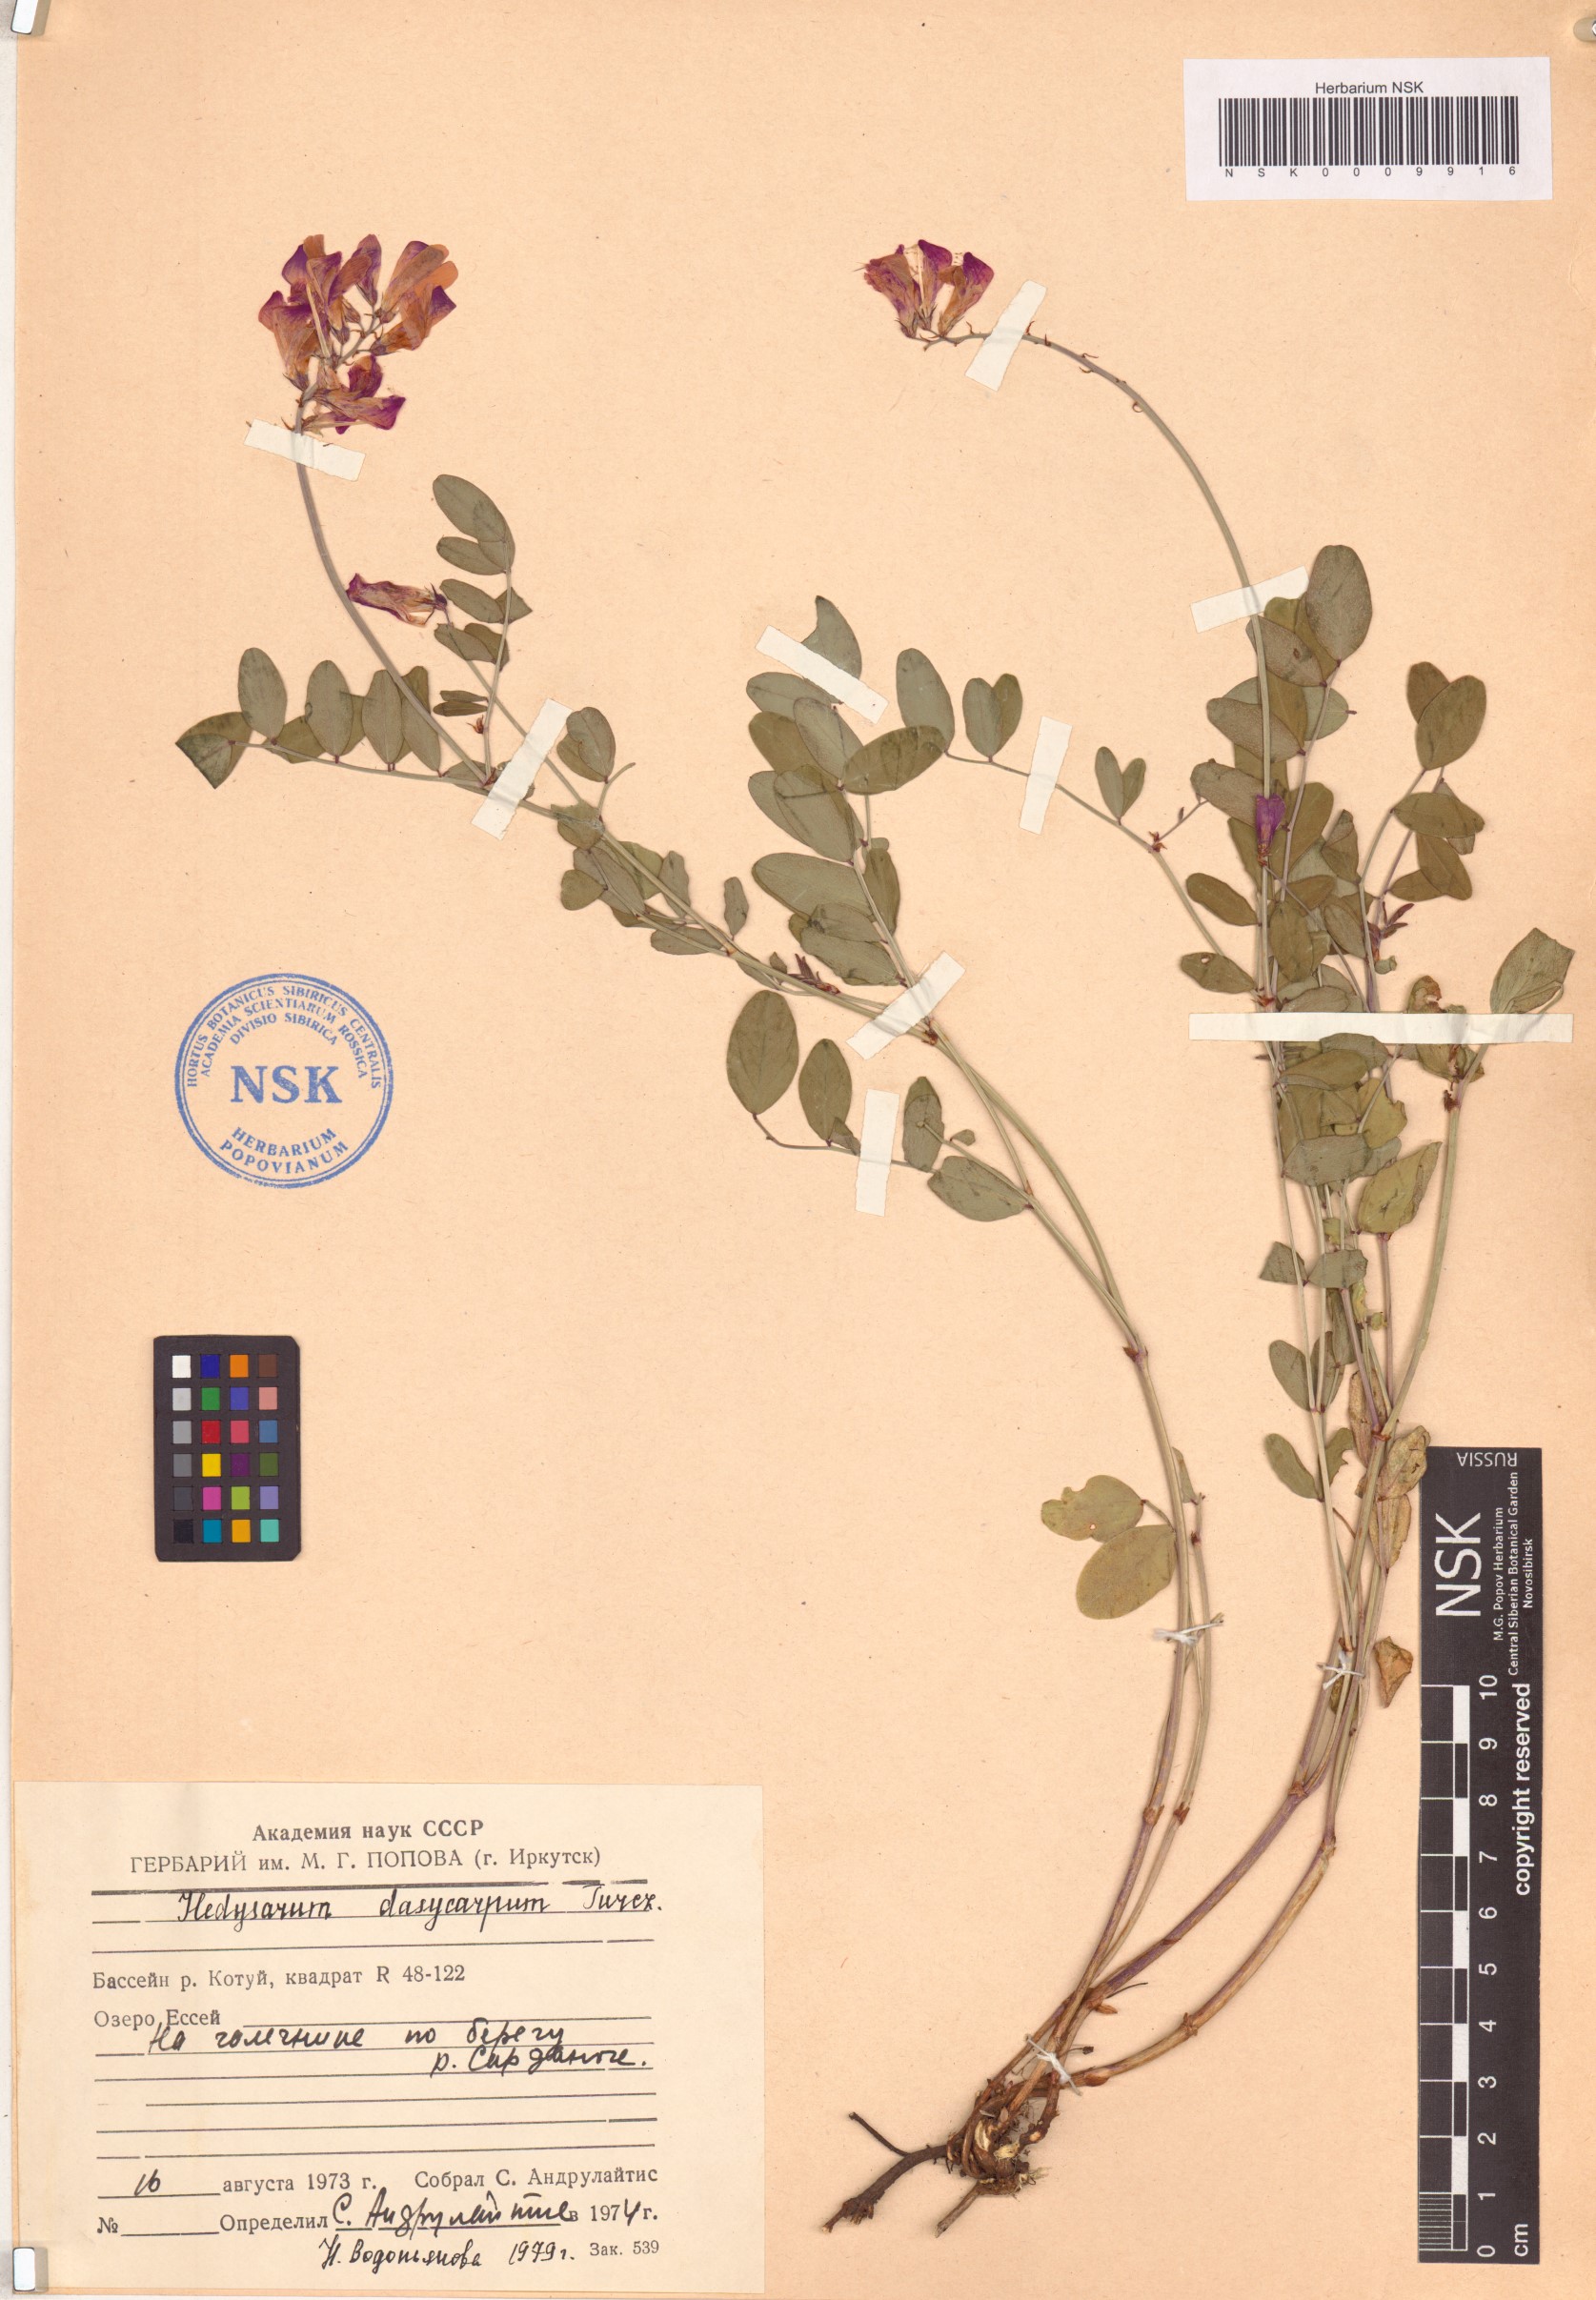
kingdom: Plantae
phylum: Tracheophyta
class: Magnoliopsida
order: Fabales
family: Fabaceae
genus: Hedysarum
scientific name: Hedysarum dasycarpum
